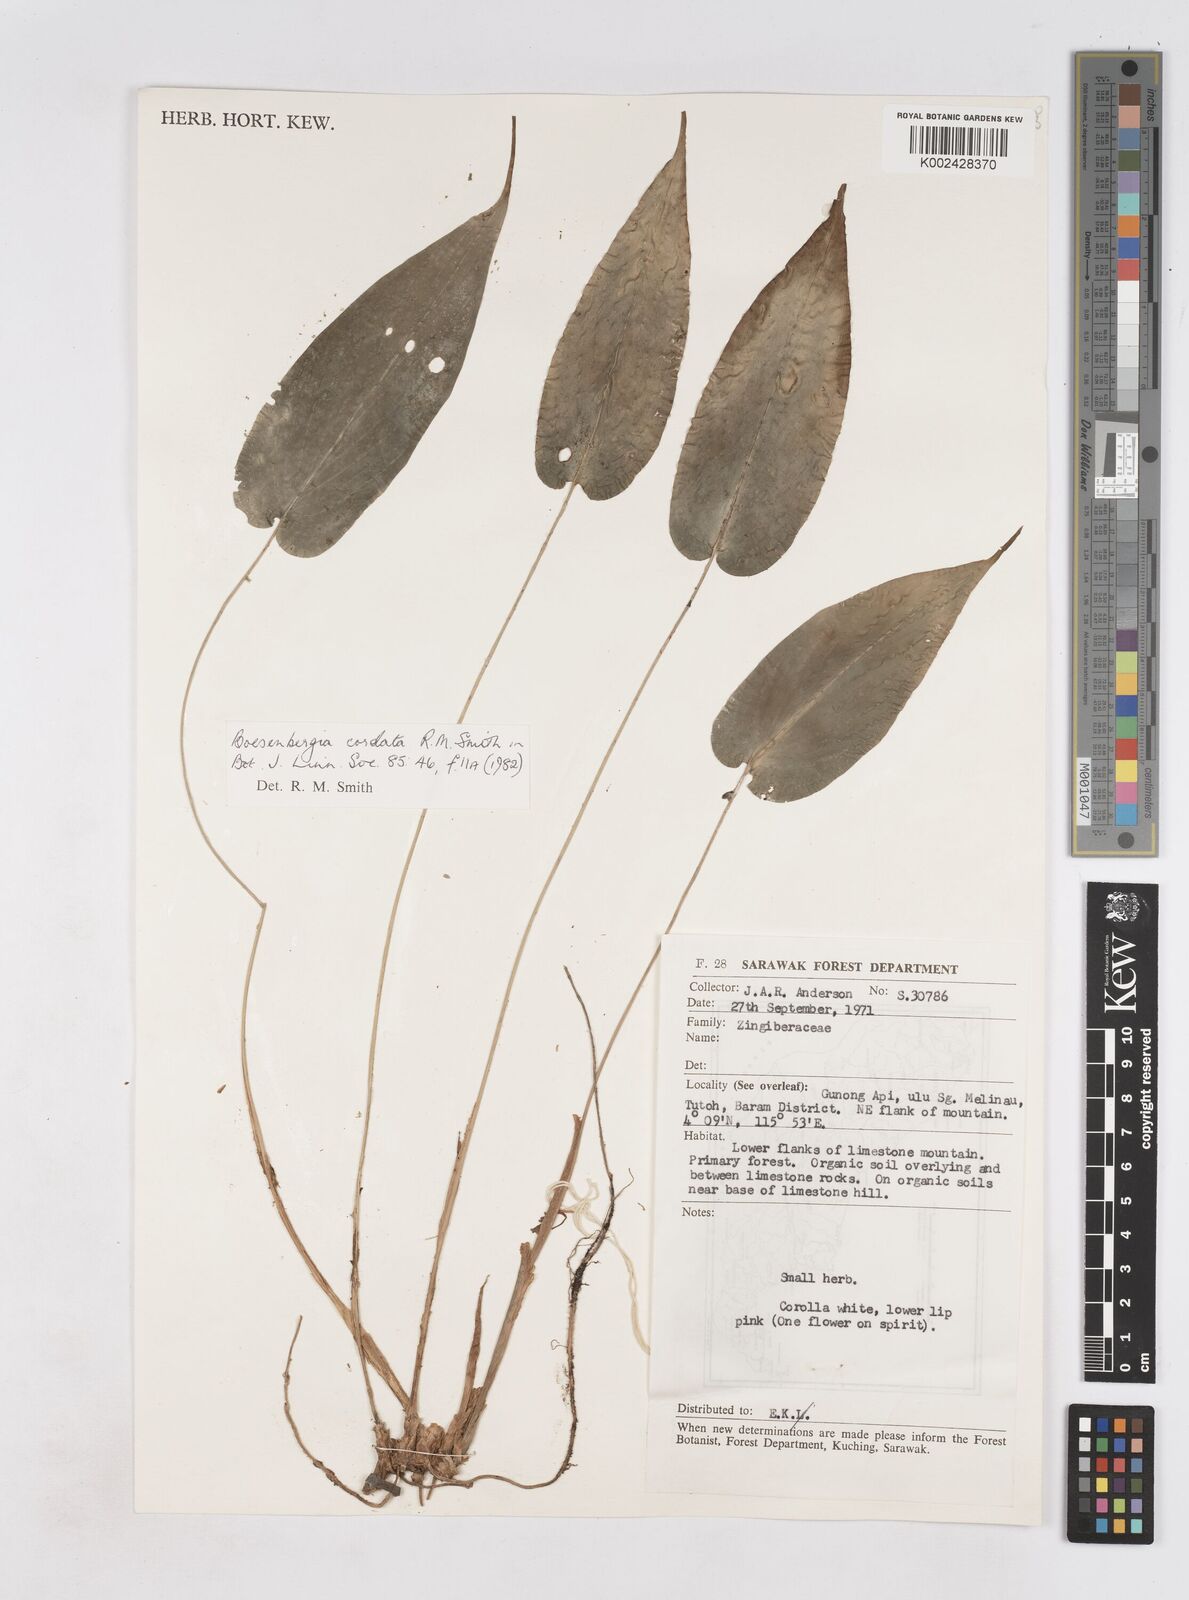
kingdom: Plantae
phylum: Tracheophyta
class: Liliopsida
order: Zingiberales
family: Zingiberaceae
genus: Boesenbergia
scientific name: Boesenbergia cordata
